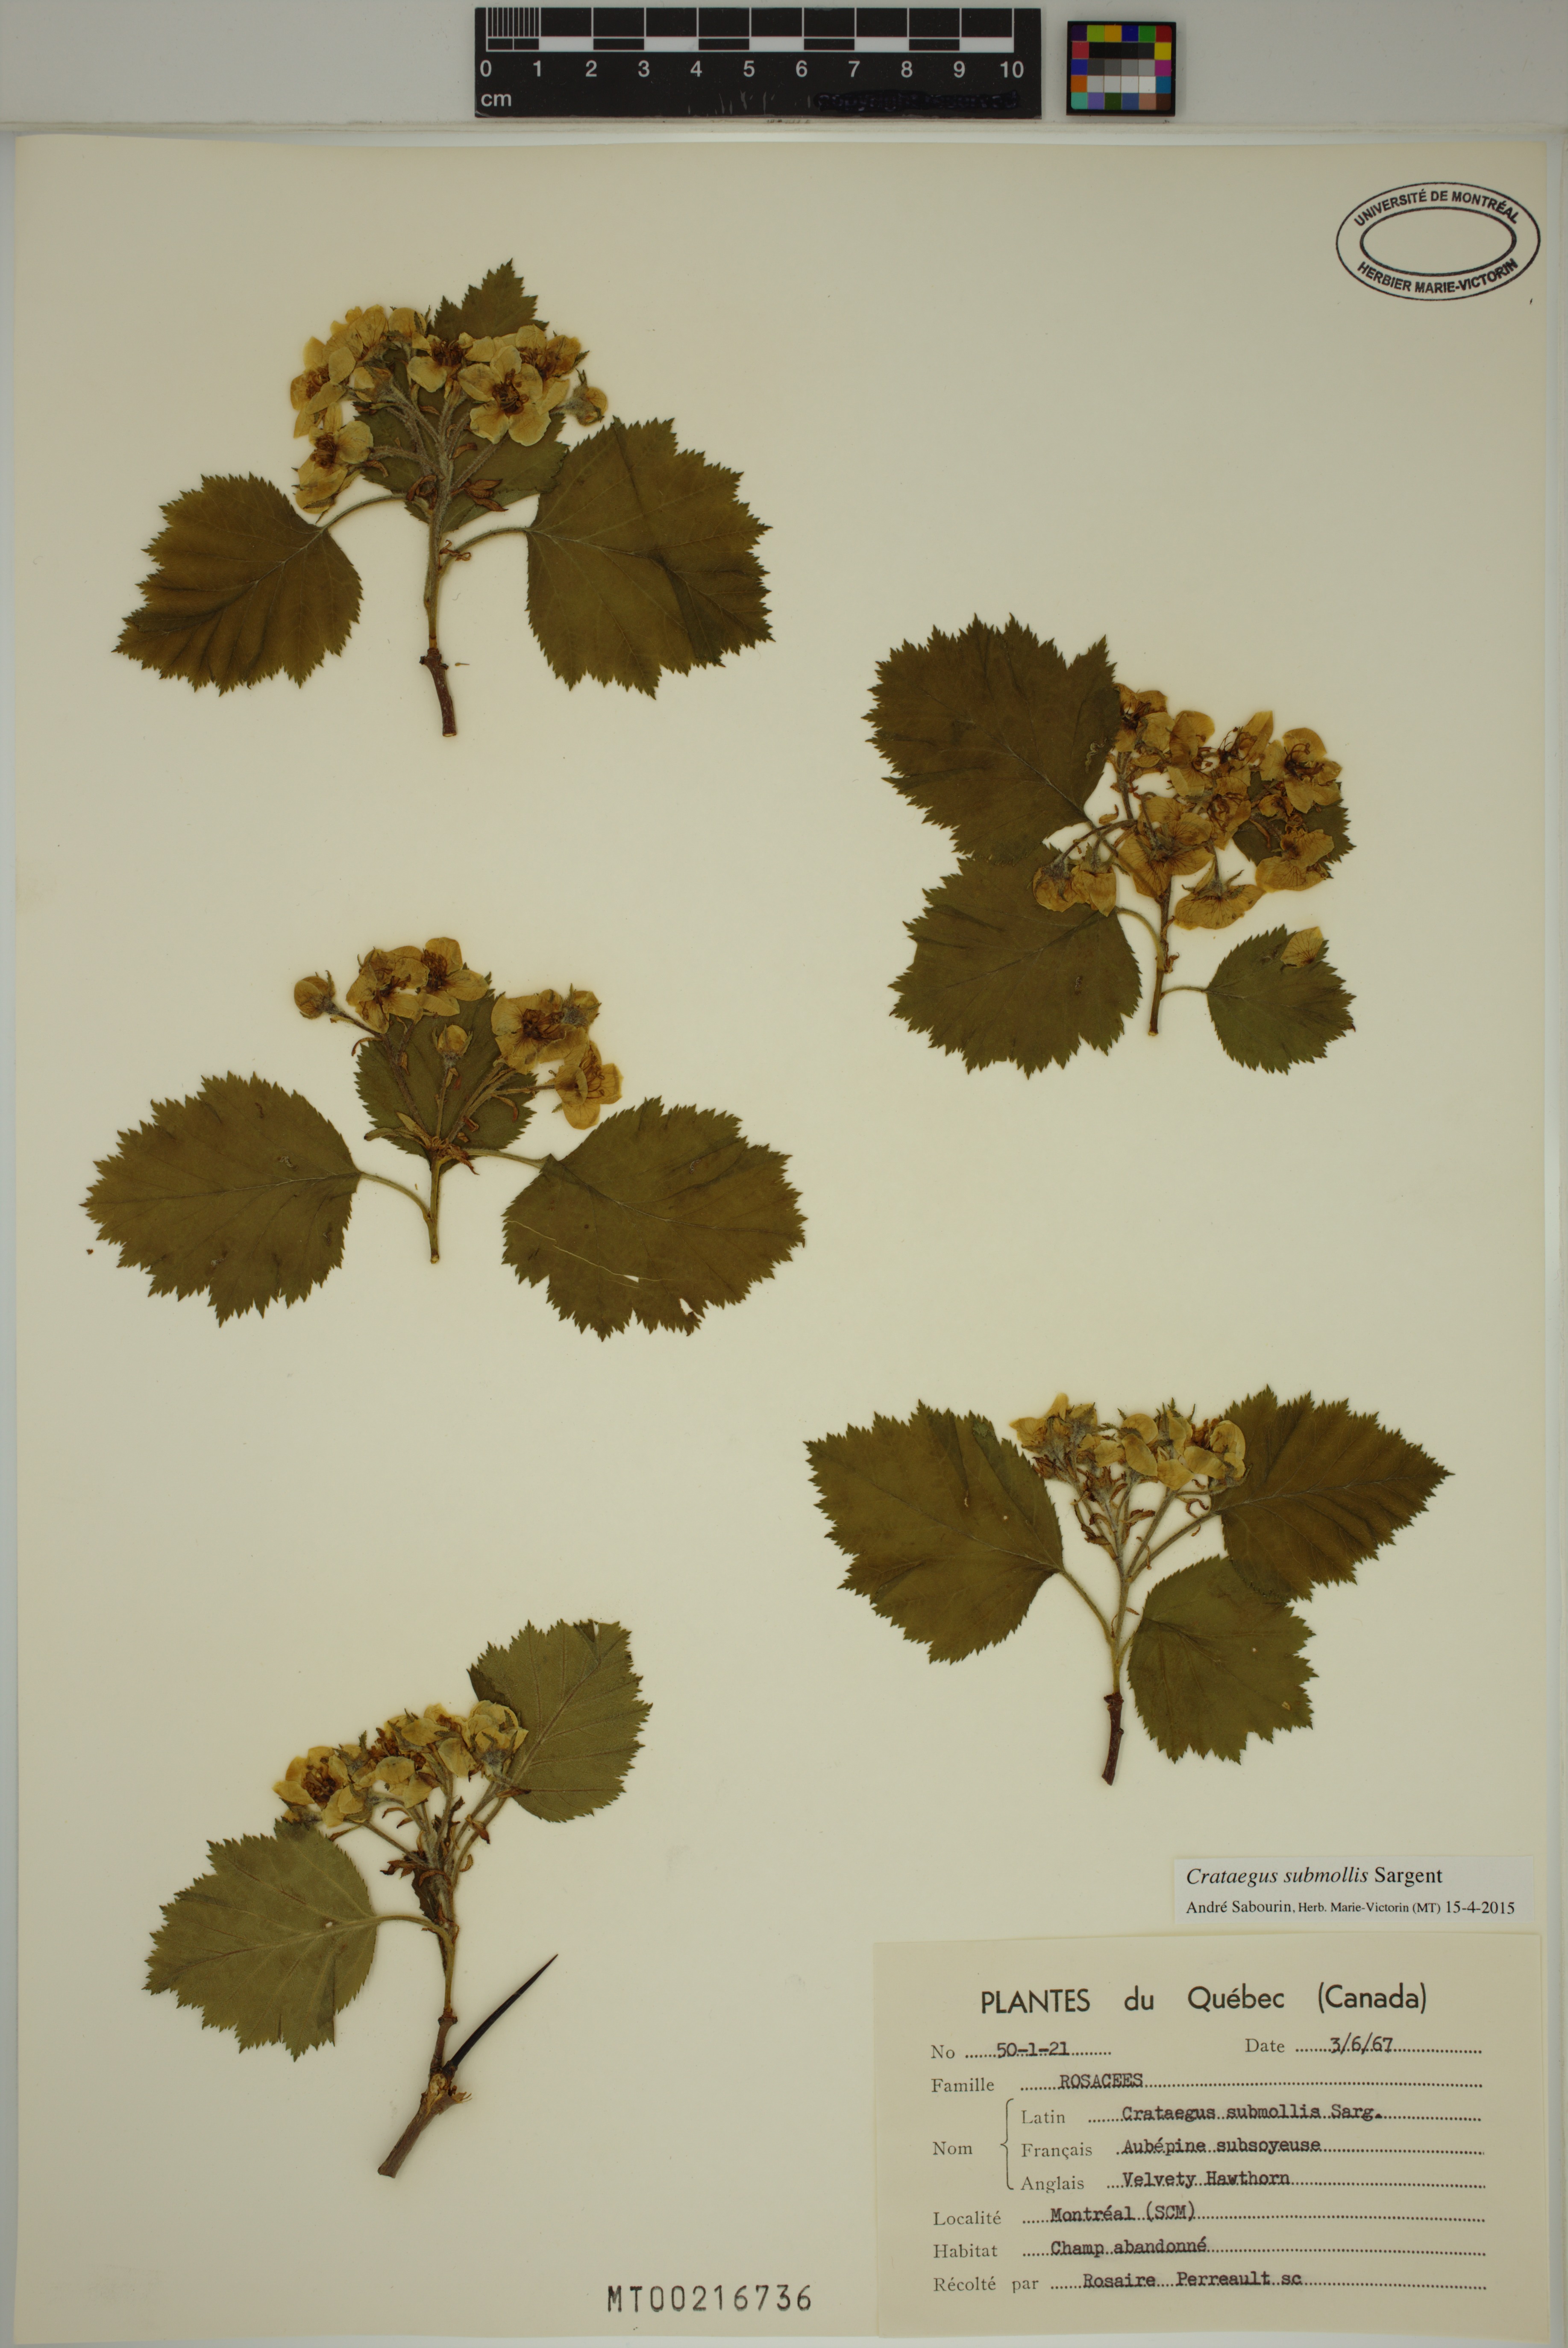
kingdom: Plantae
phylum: Tracheophyta
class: Magnoliopsida
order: Rosales
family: Rosaceae
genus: Crataegus
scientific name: Crataegus submollis
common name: Hairy cockspurthorn
